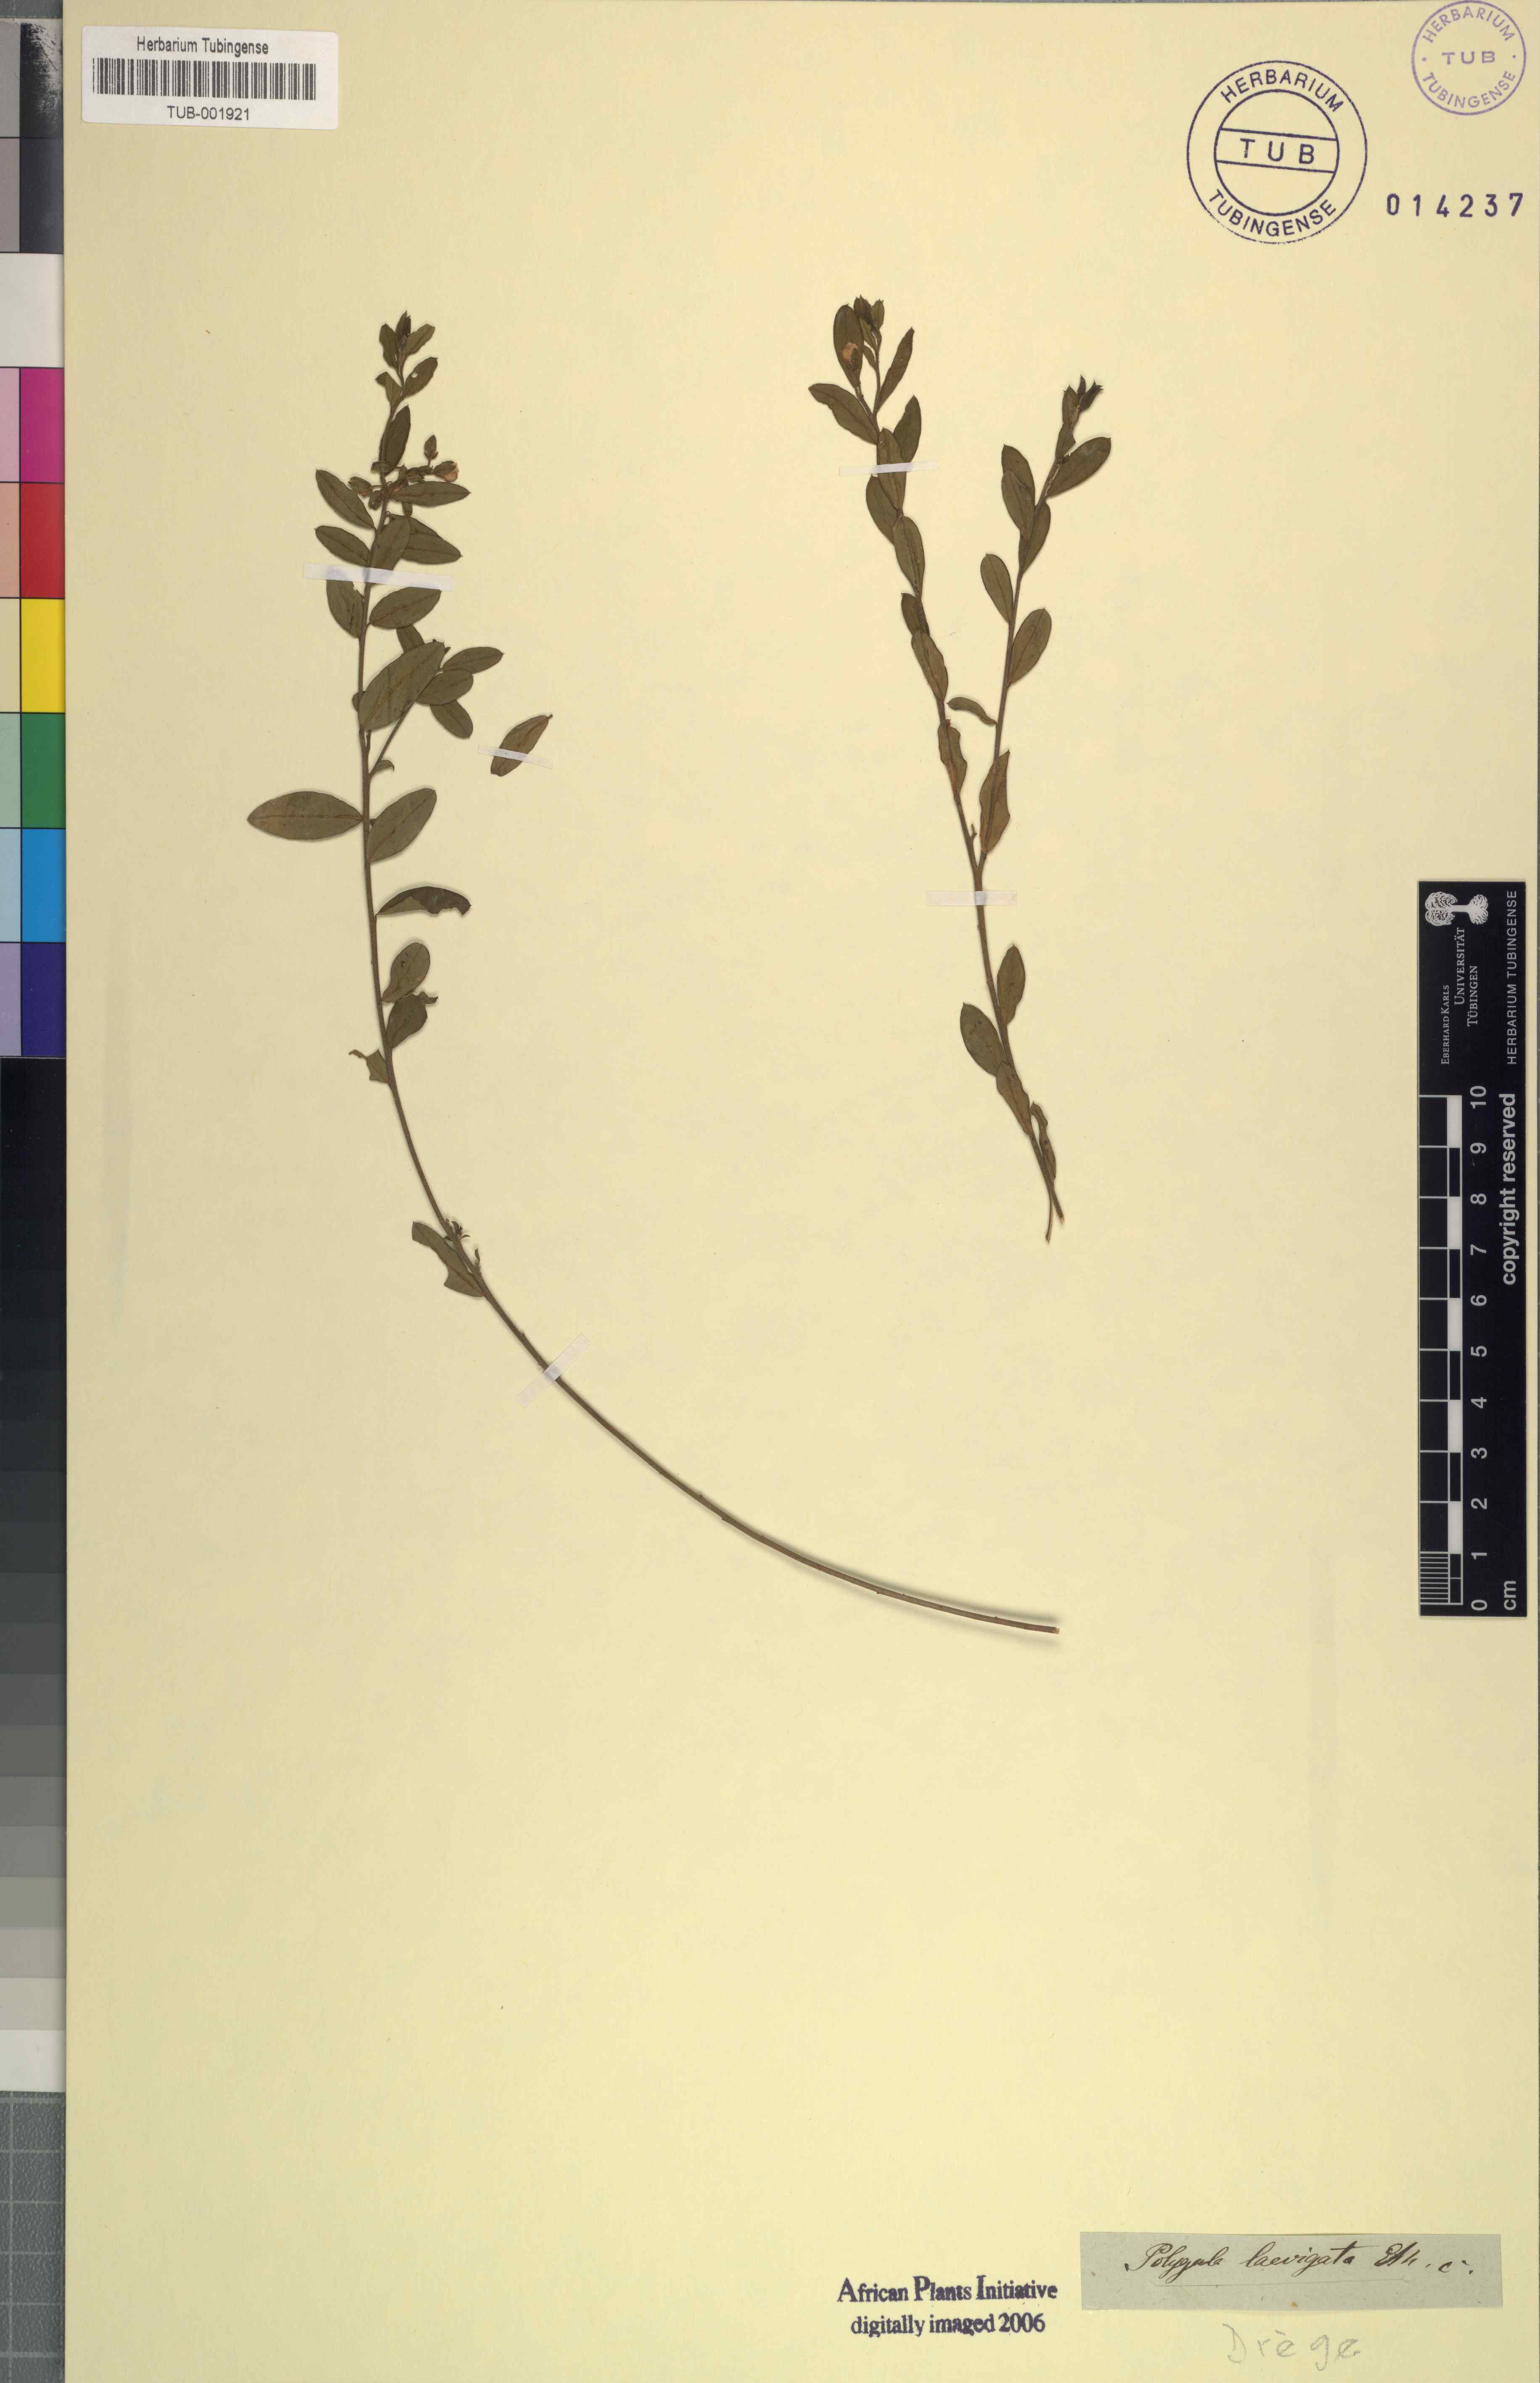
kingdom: Plantae
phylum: Tracheophyta
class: Magnoliopsida
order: Fabales
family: Polygalaceae
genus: Polygala
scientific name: Polygala serpentaria
